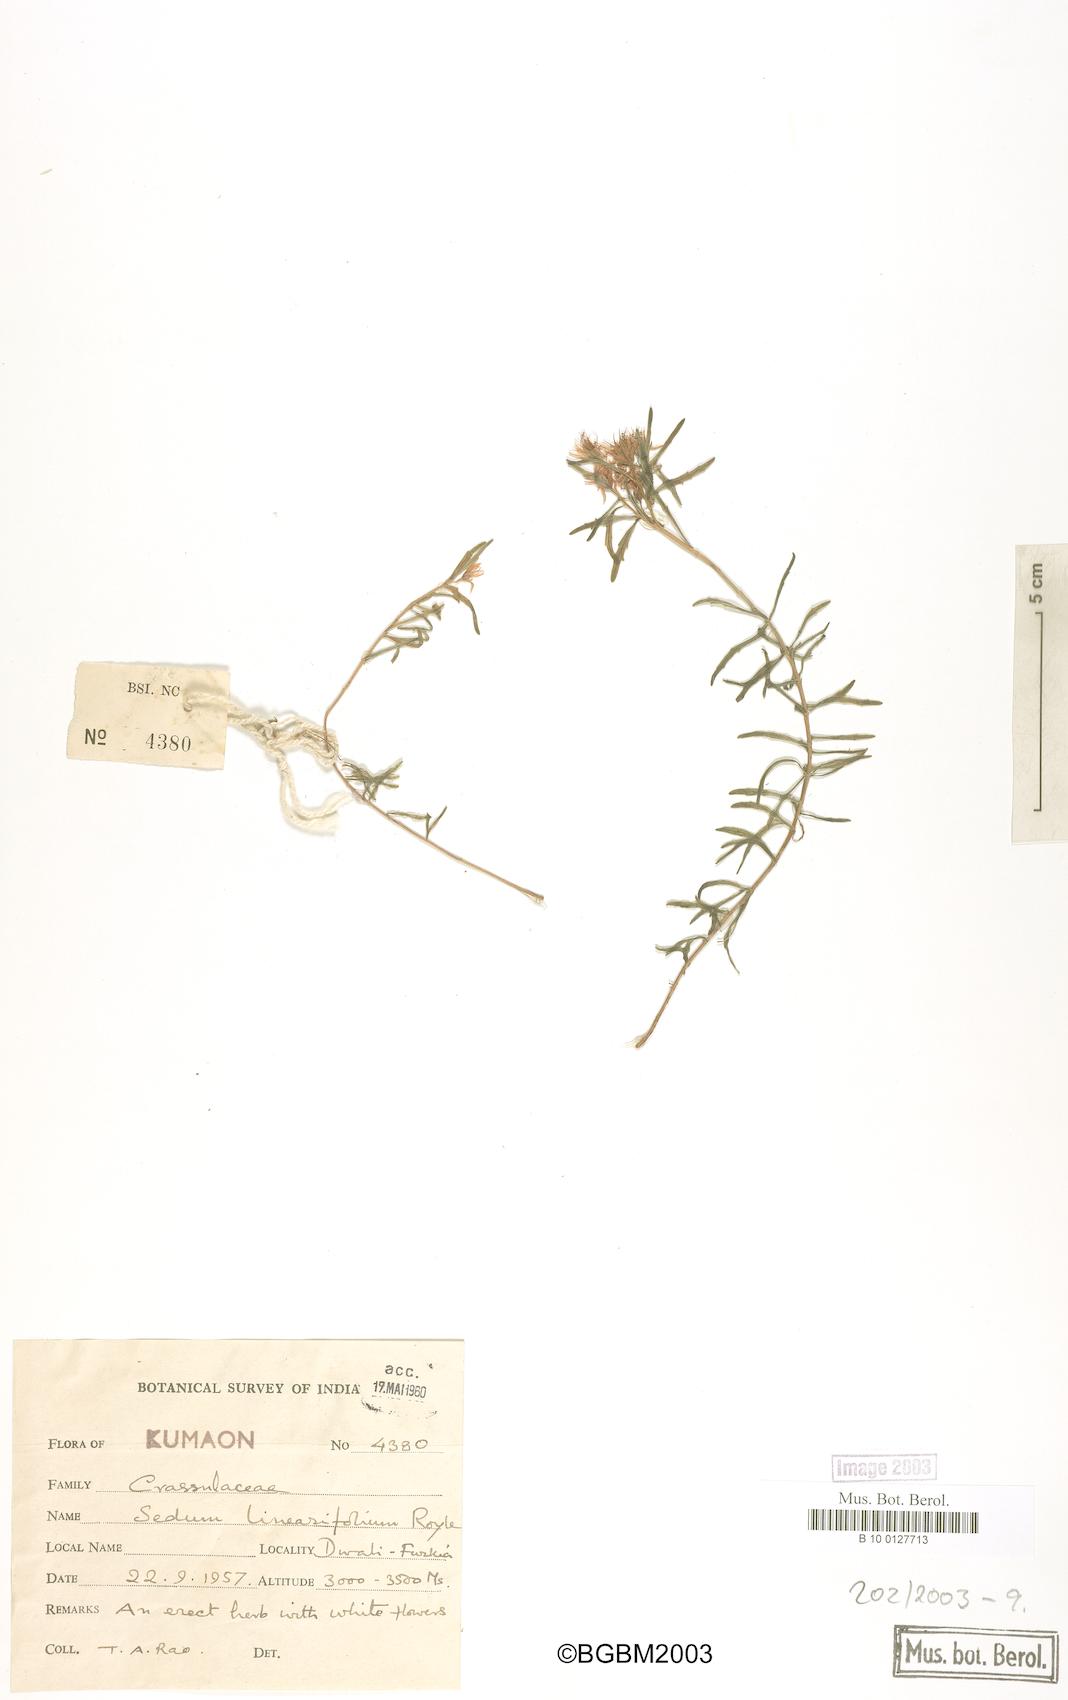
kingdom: Plantae
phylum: Tracheophyta
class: Magnoliopsida
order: Saxifragales
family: Crassulaceae
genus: Rhodiola
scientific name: Rhodiola sinuata
